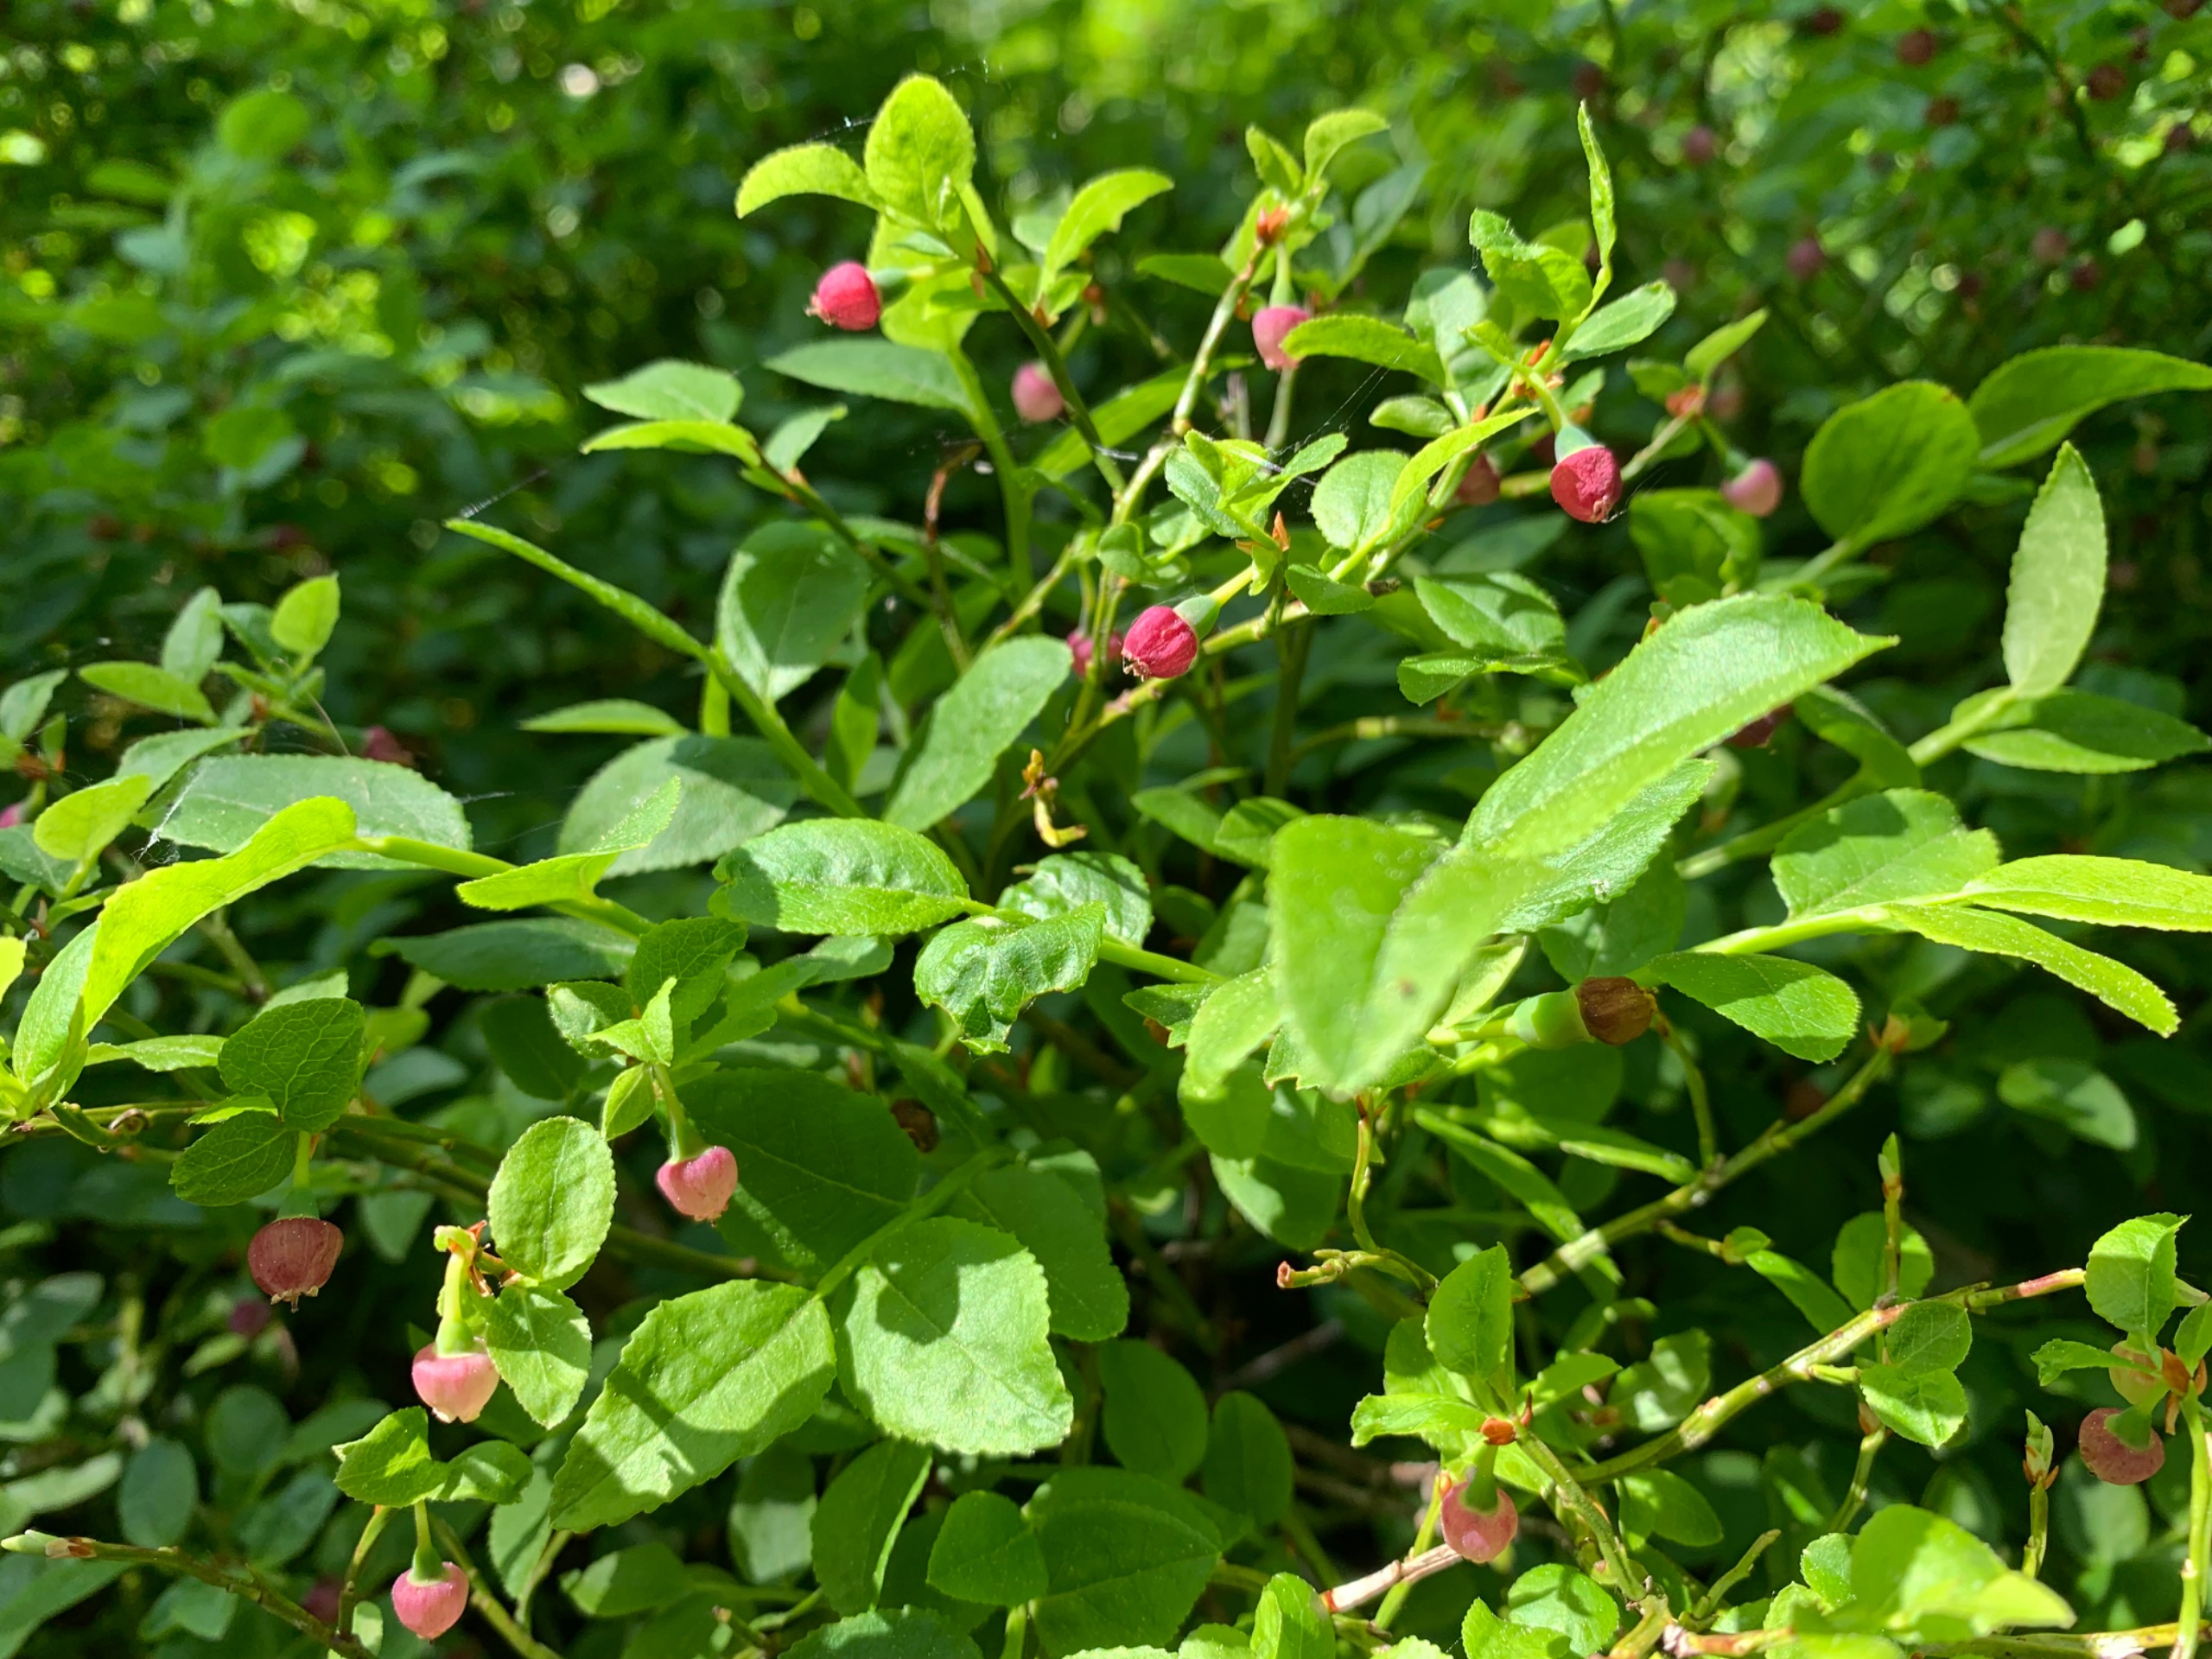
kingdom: Plantae
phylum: Tracheophyta
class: Magnoliopsida
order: Ericales
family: Ericaceae
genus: Vaccinium
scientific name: Vaccinium myrtillus
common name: Blåbær
